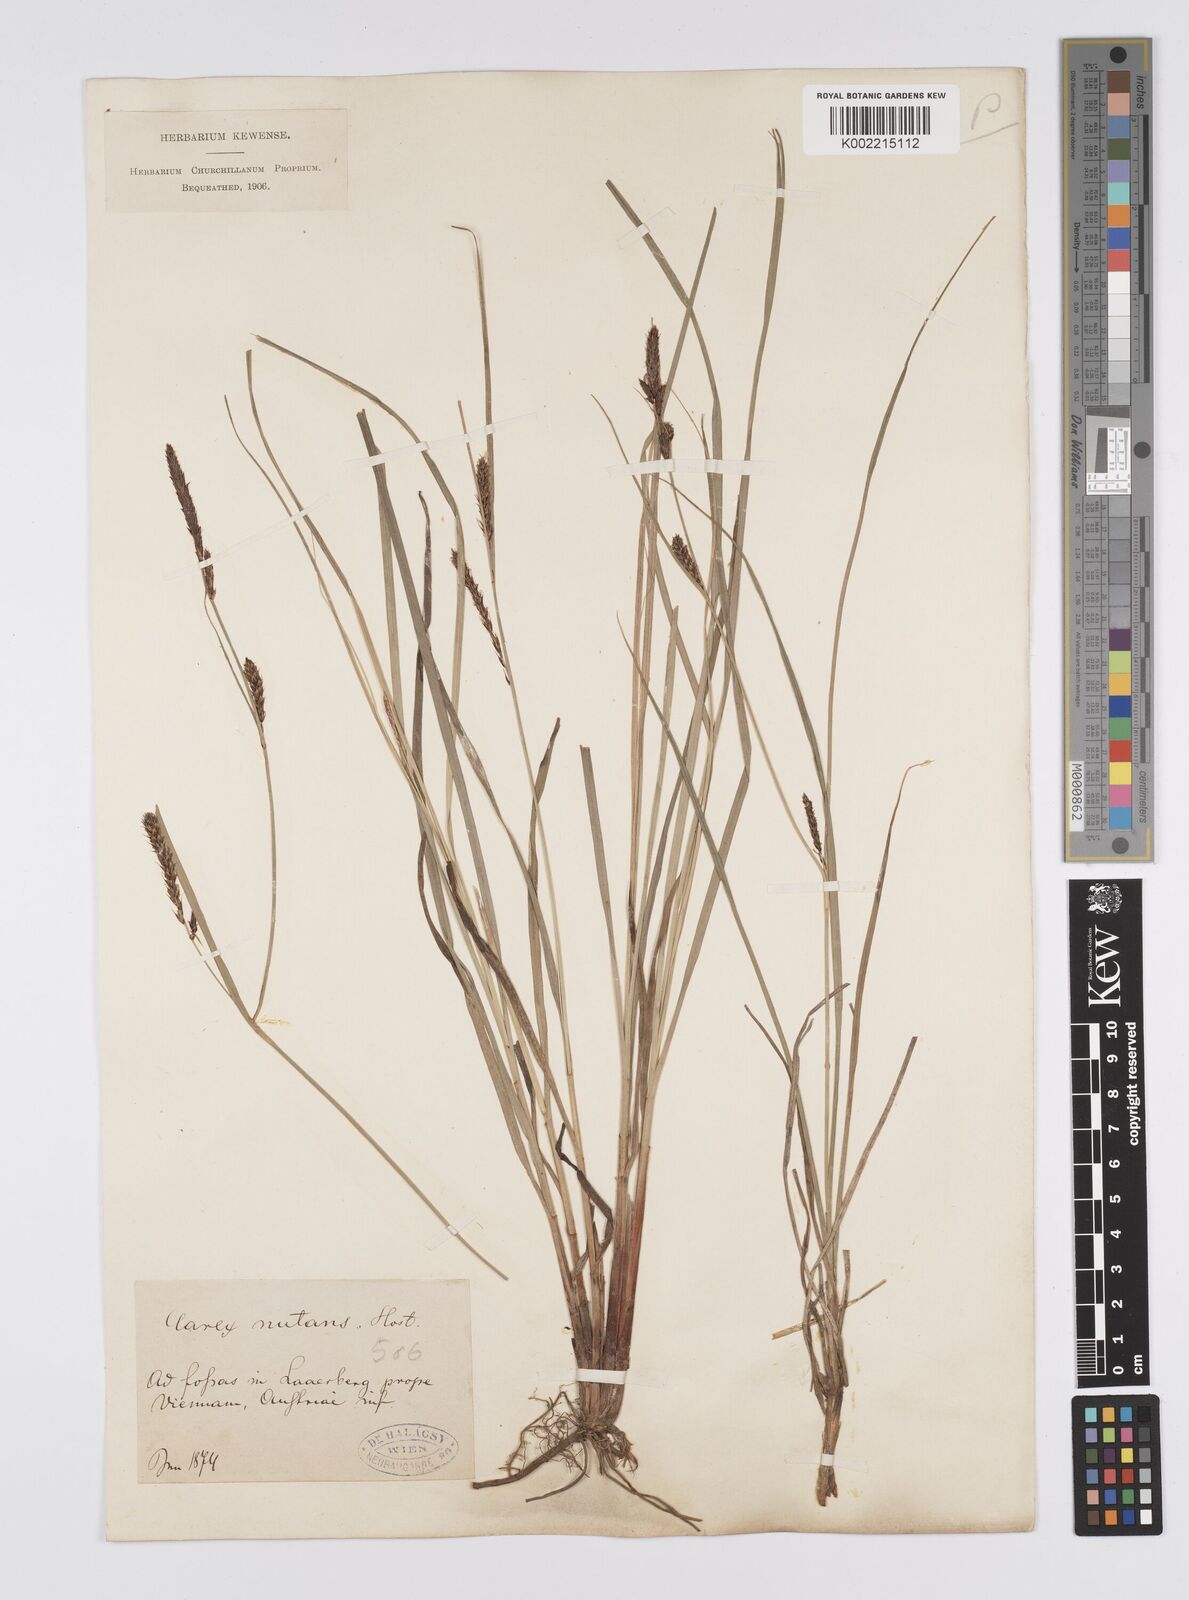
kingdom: Plantae
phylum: Tracheophyta
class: Liliopsida
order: Poales
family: Cyperaceae
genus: Carex
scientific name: Carex melanostachya
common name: Black-spiked sedge
